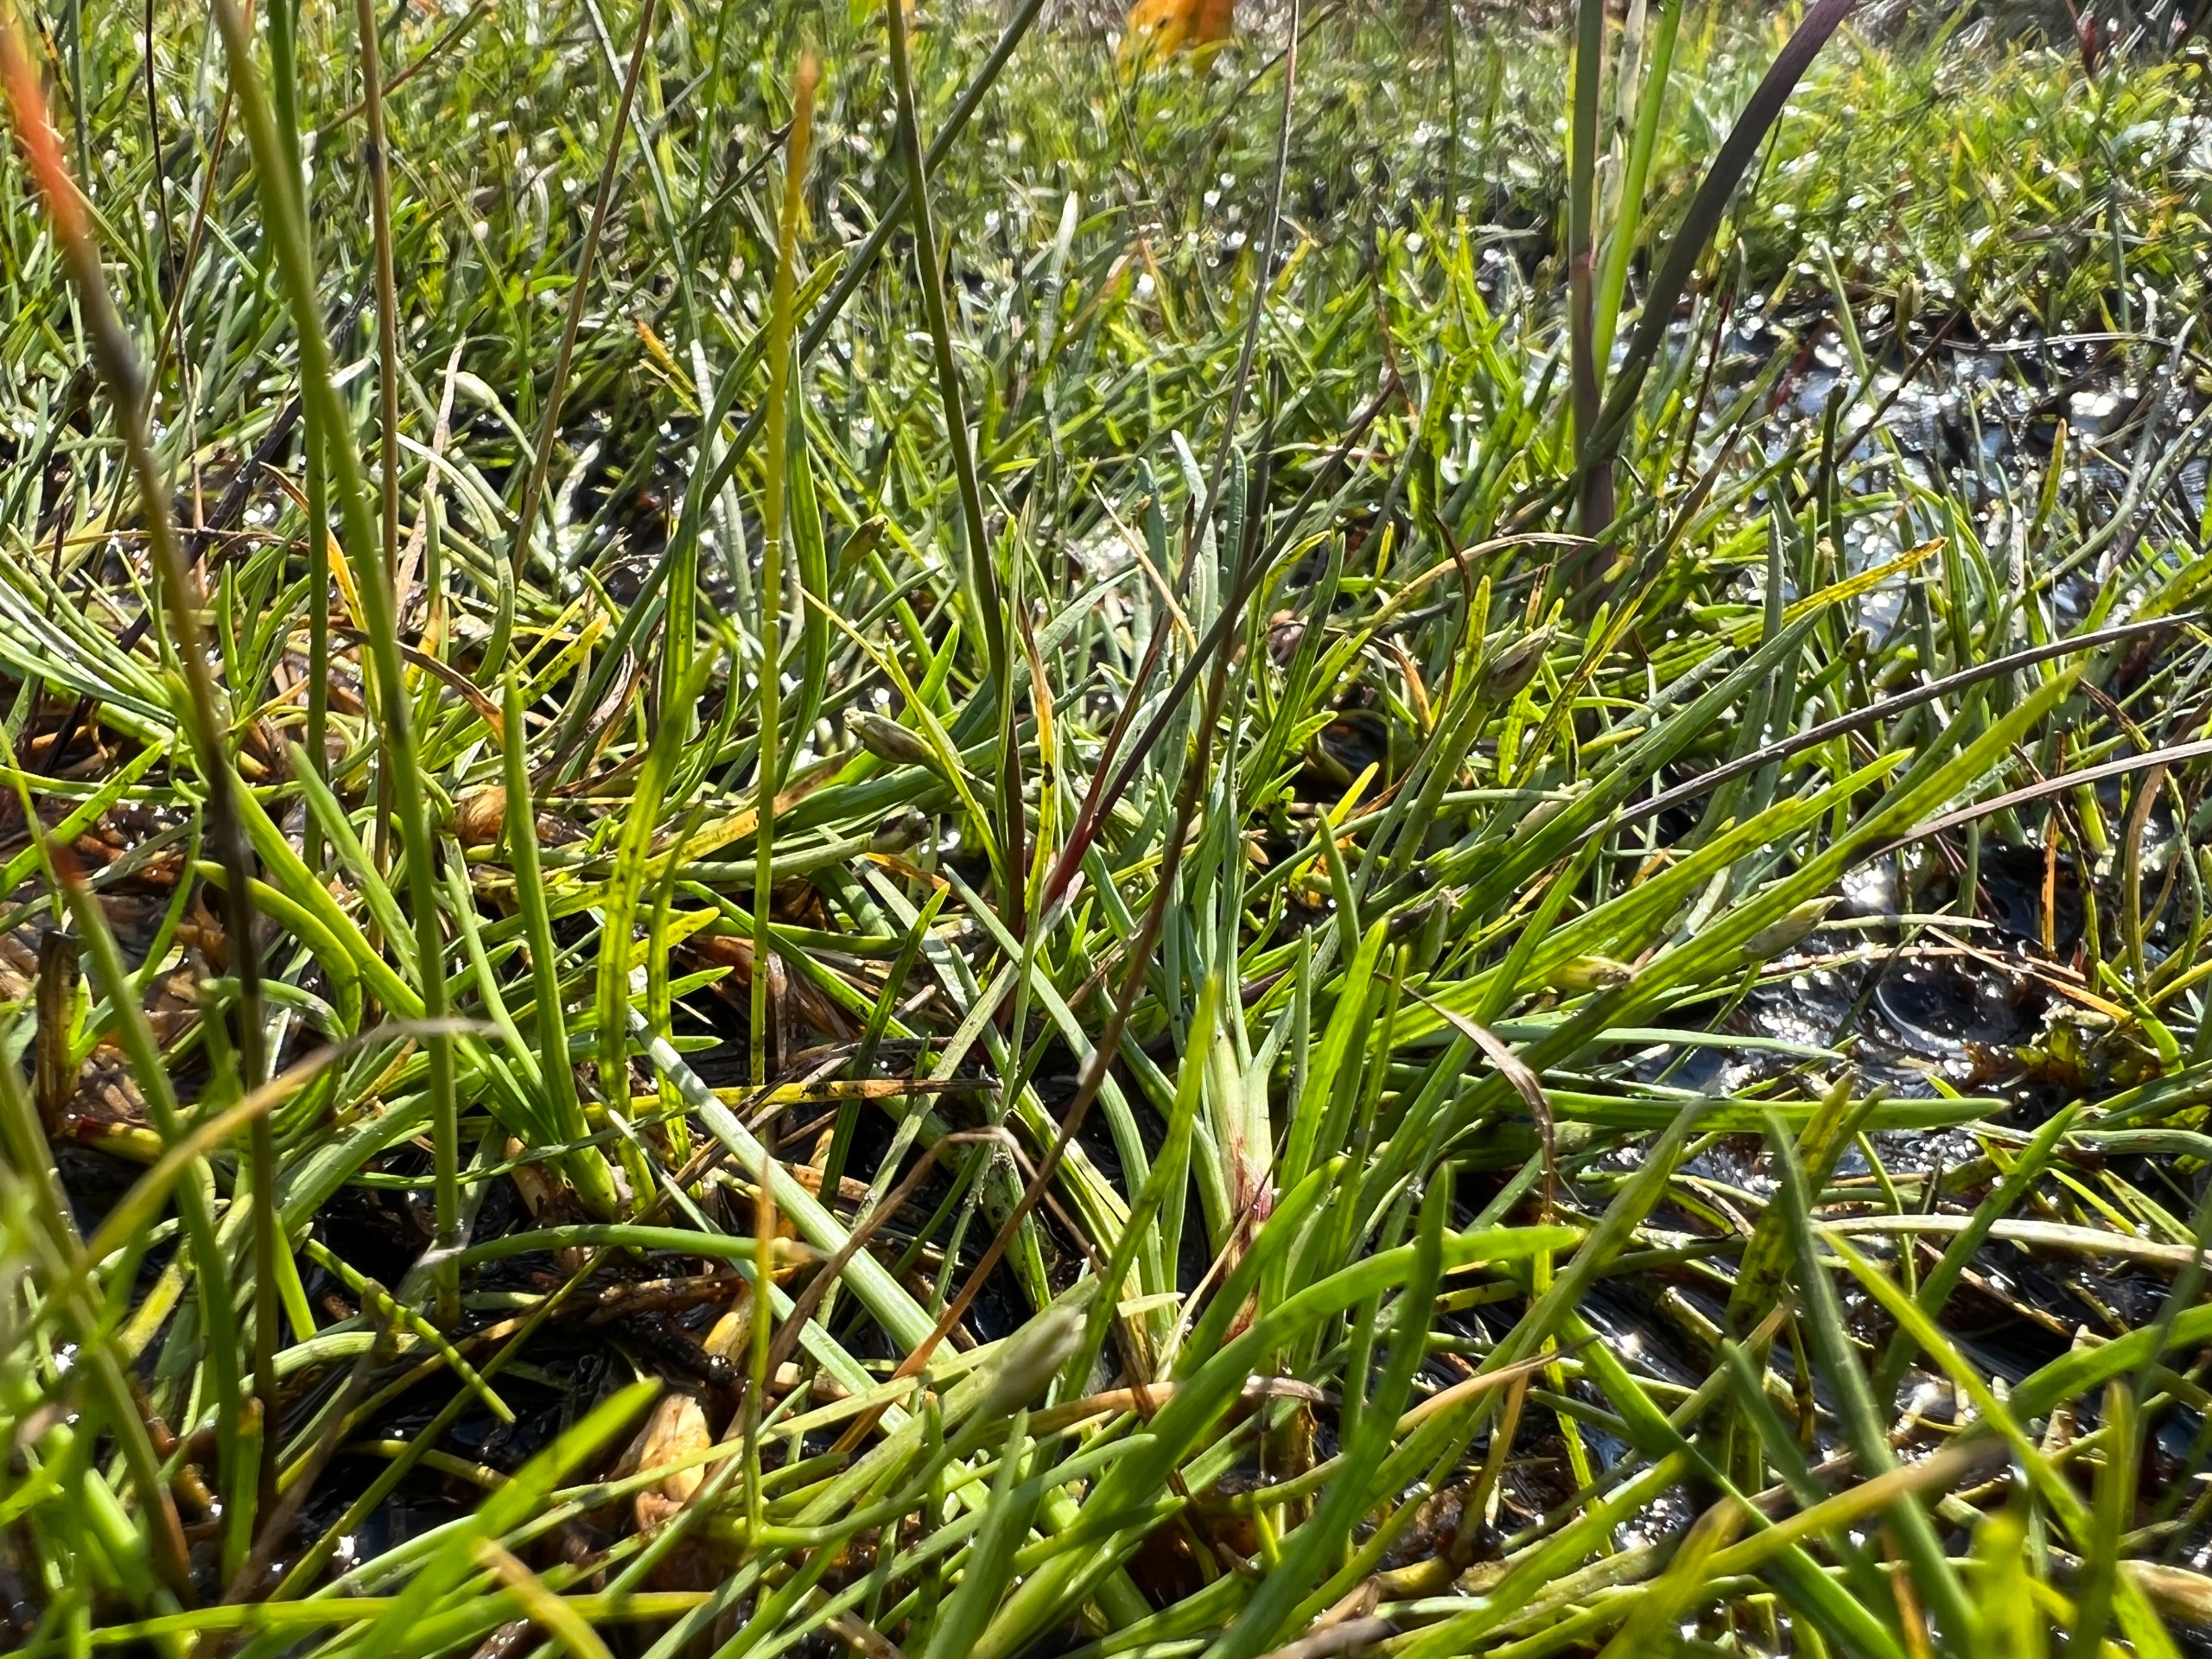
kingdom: Plantae
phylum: Tracheophyta
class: Liliopsida
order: Poales
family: Cyperaceae
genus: Isolepis
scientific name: Isolepis fluitans
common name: Flydende kogleaks
